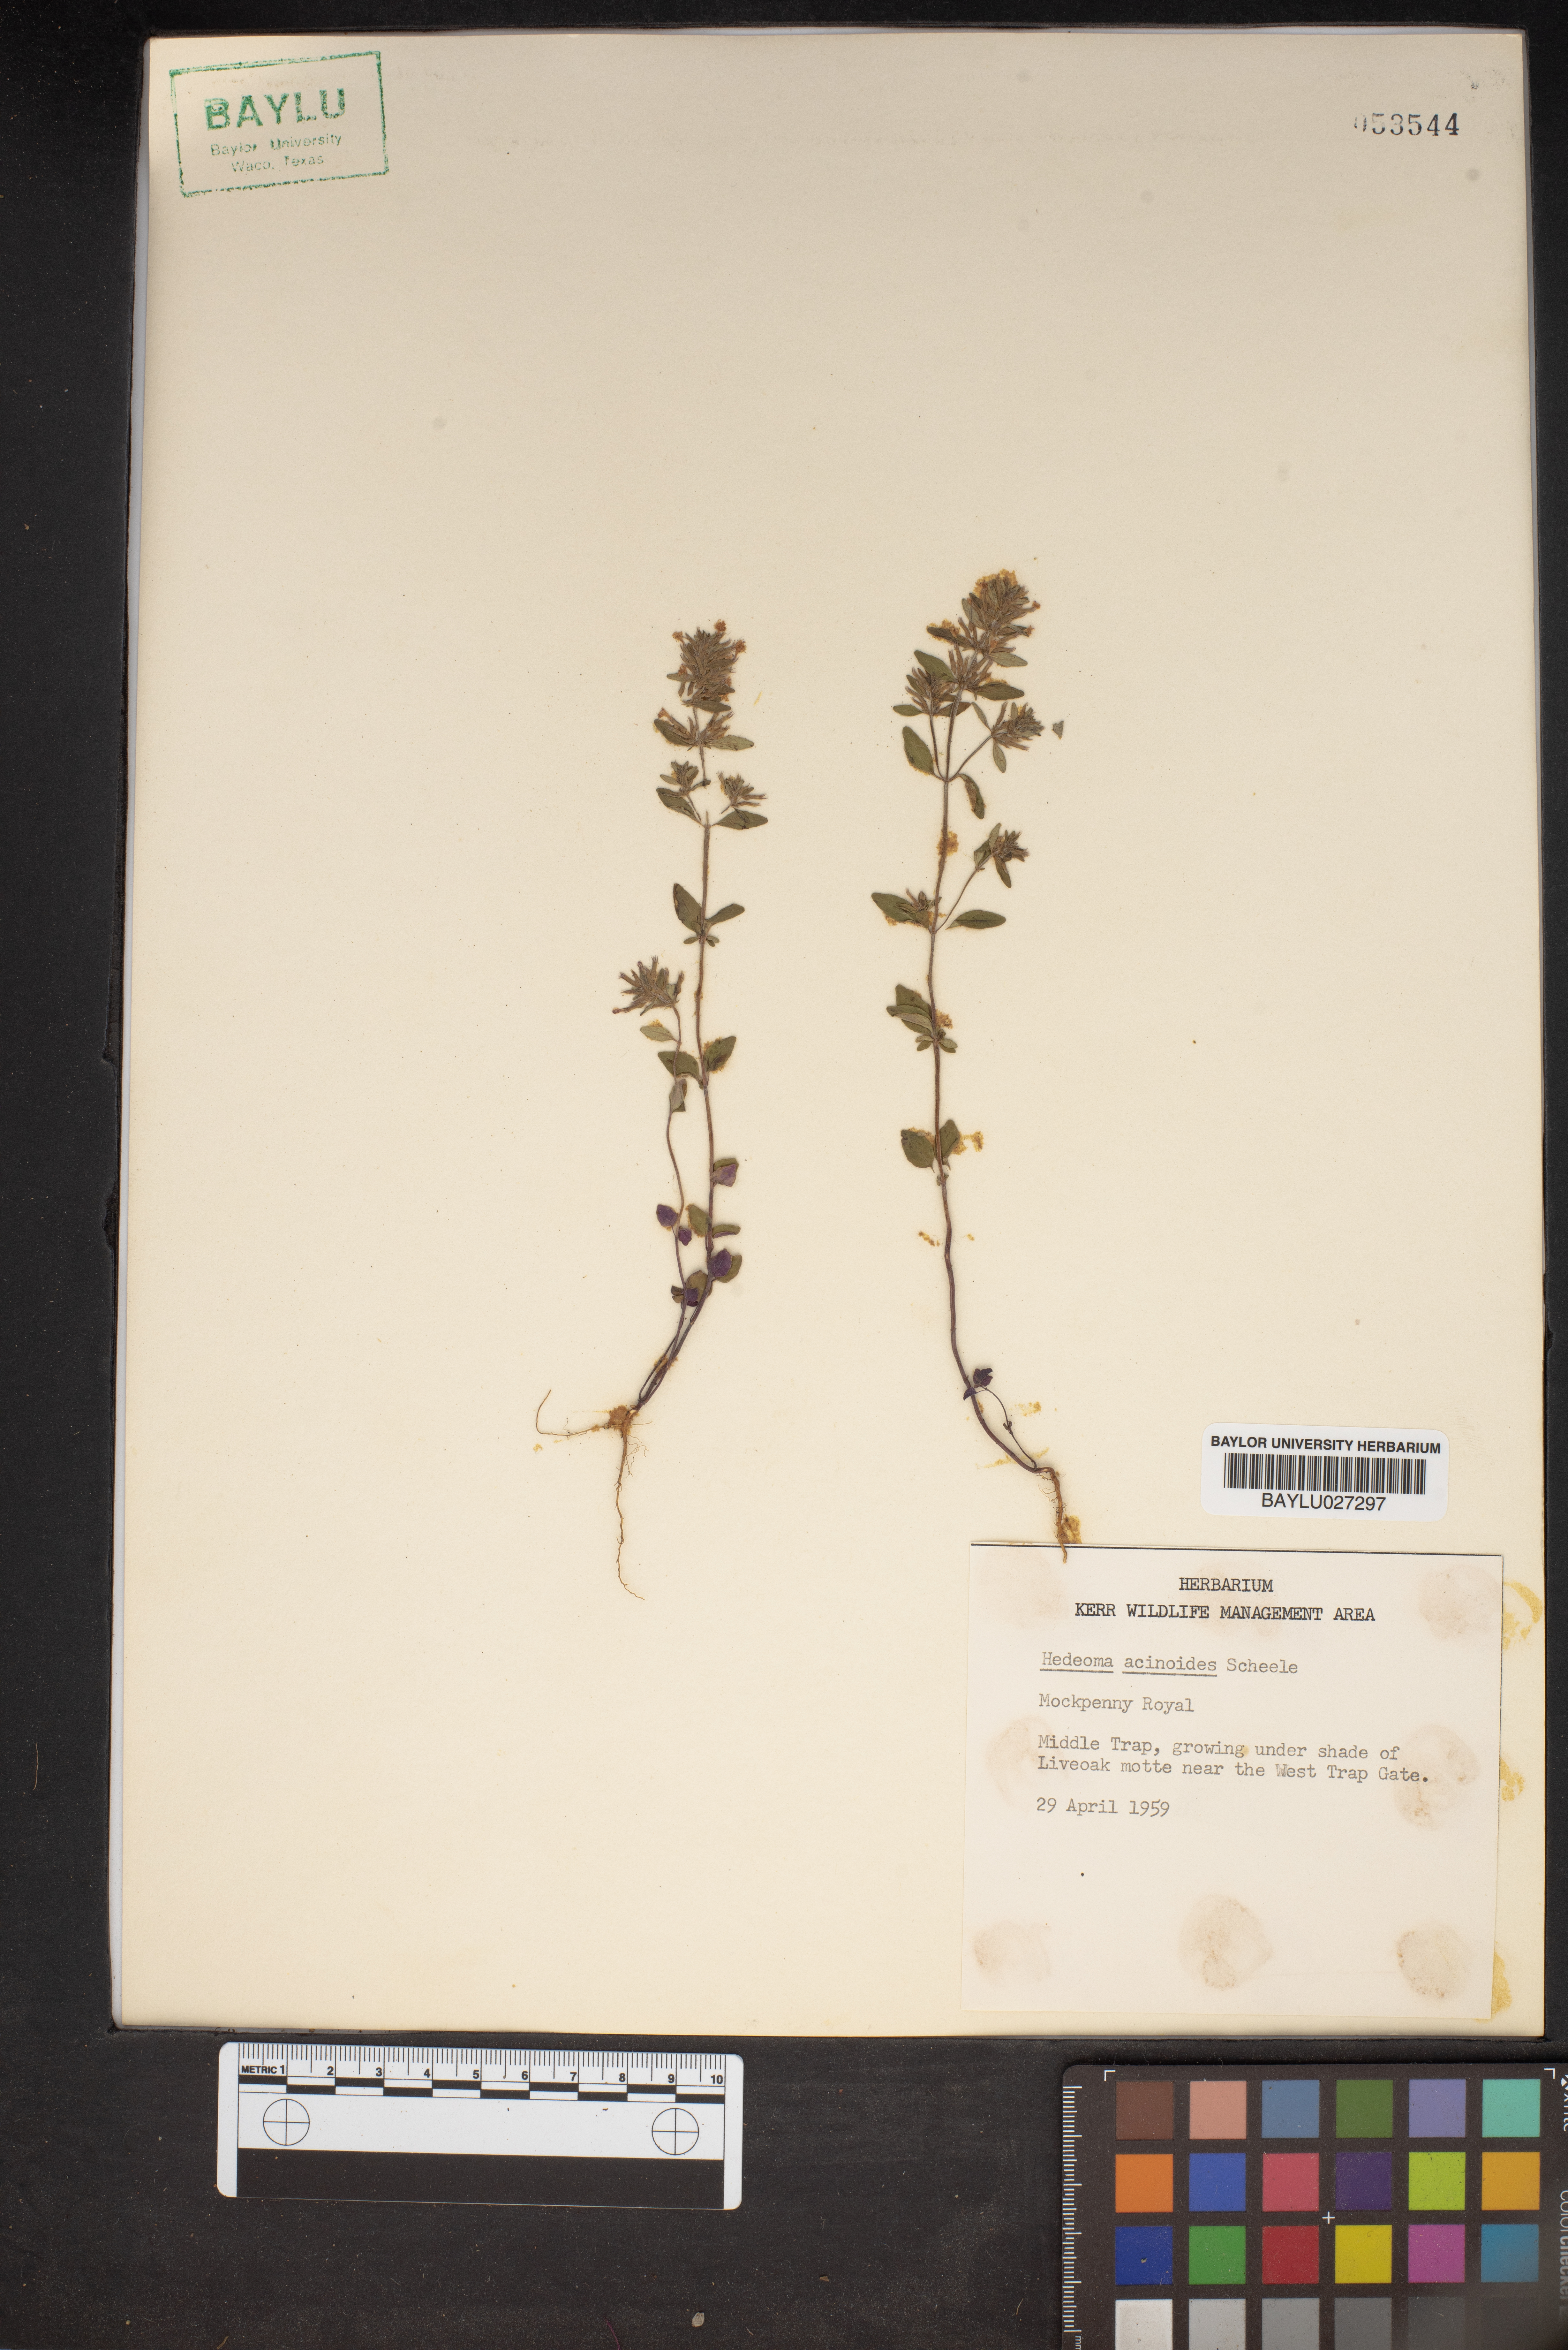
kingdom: Plantae
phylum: Tracheophyta
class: Magnoliopsida
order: Lamiales
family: Lamiaceae
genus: Hedeoma
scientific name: Hedeoma acinoides
